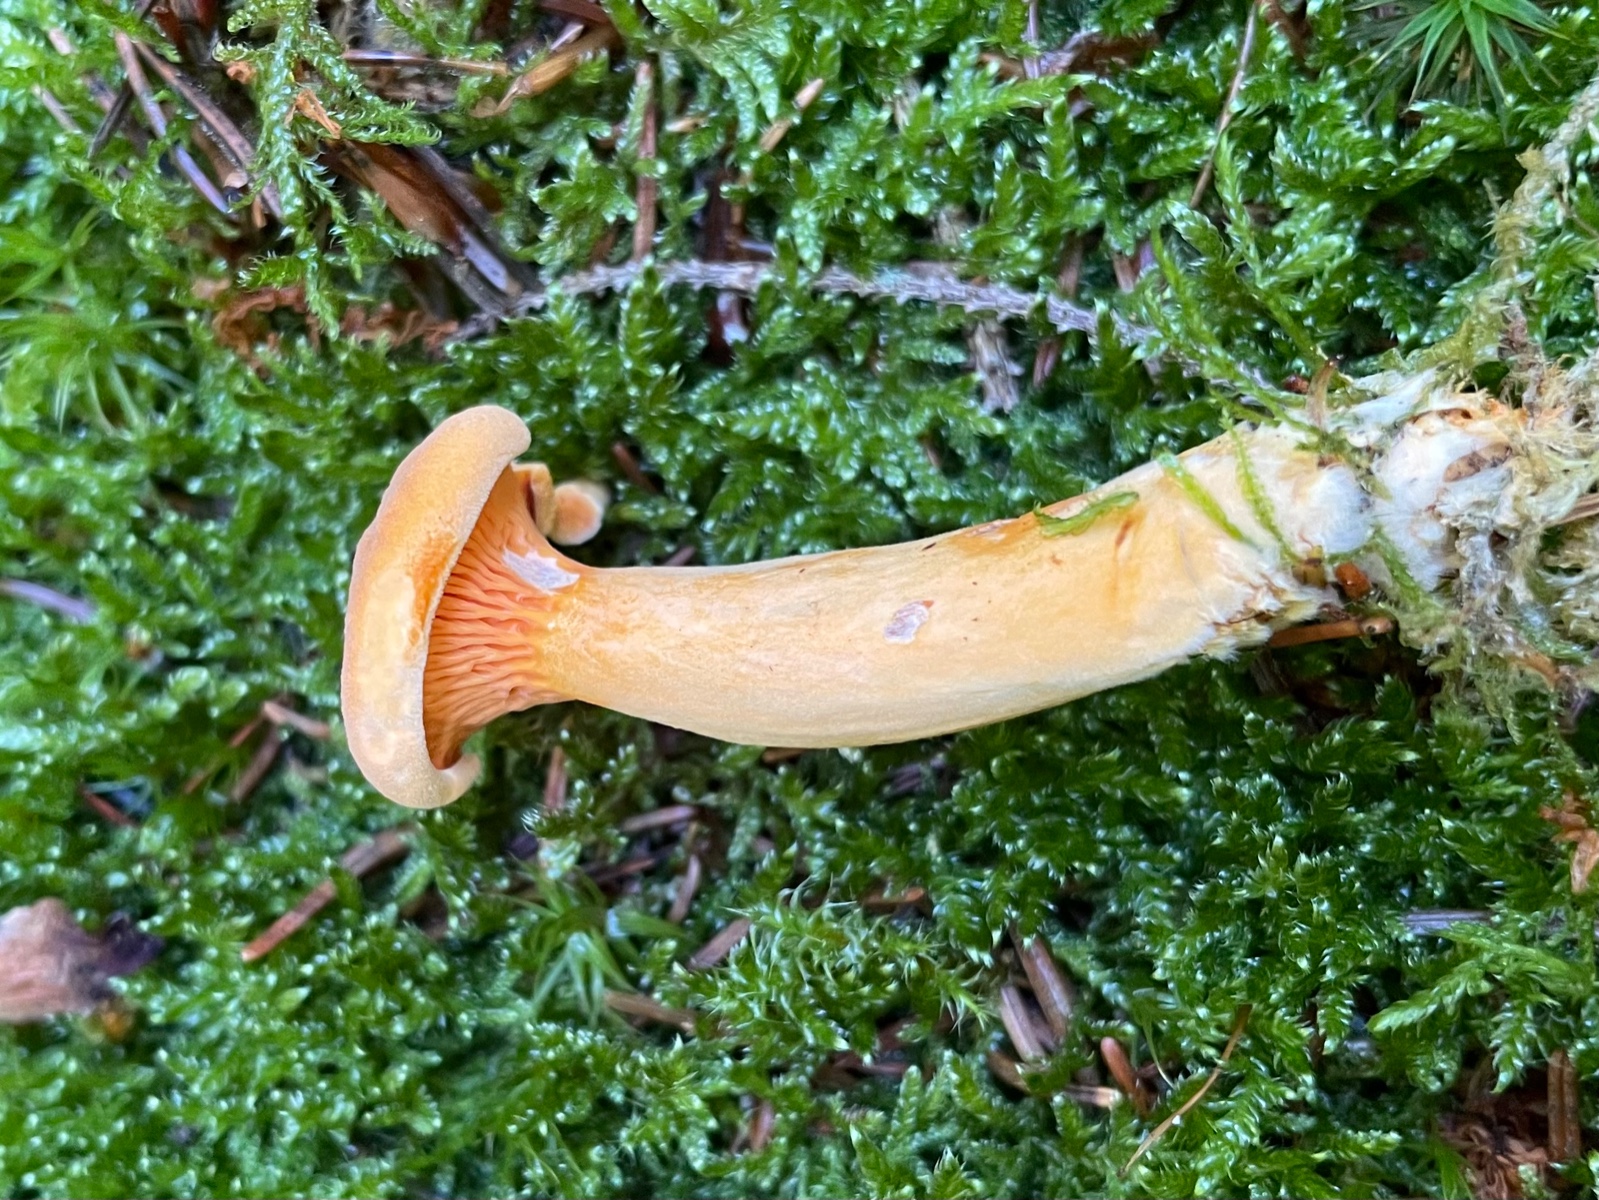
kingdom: Fungi
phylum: Basidiomycota
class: Agaricomycetes
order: Boletales
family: Hygrophoropsidaceae
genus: Hygrophoropsis
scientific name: Hygrophoropsis aurantiaca
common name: almindelig orangekantarel
